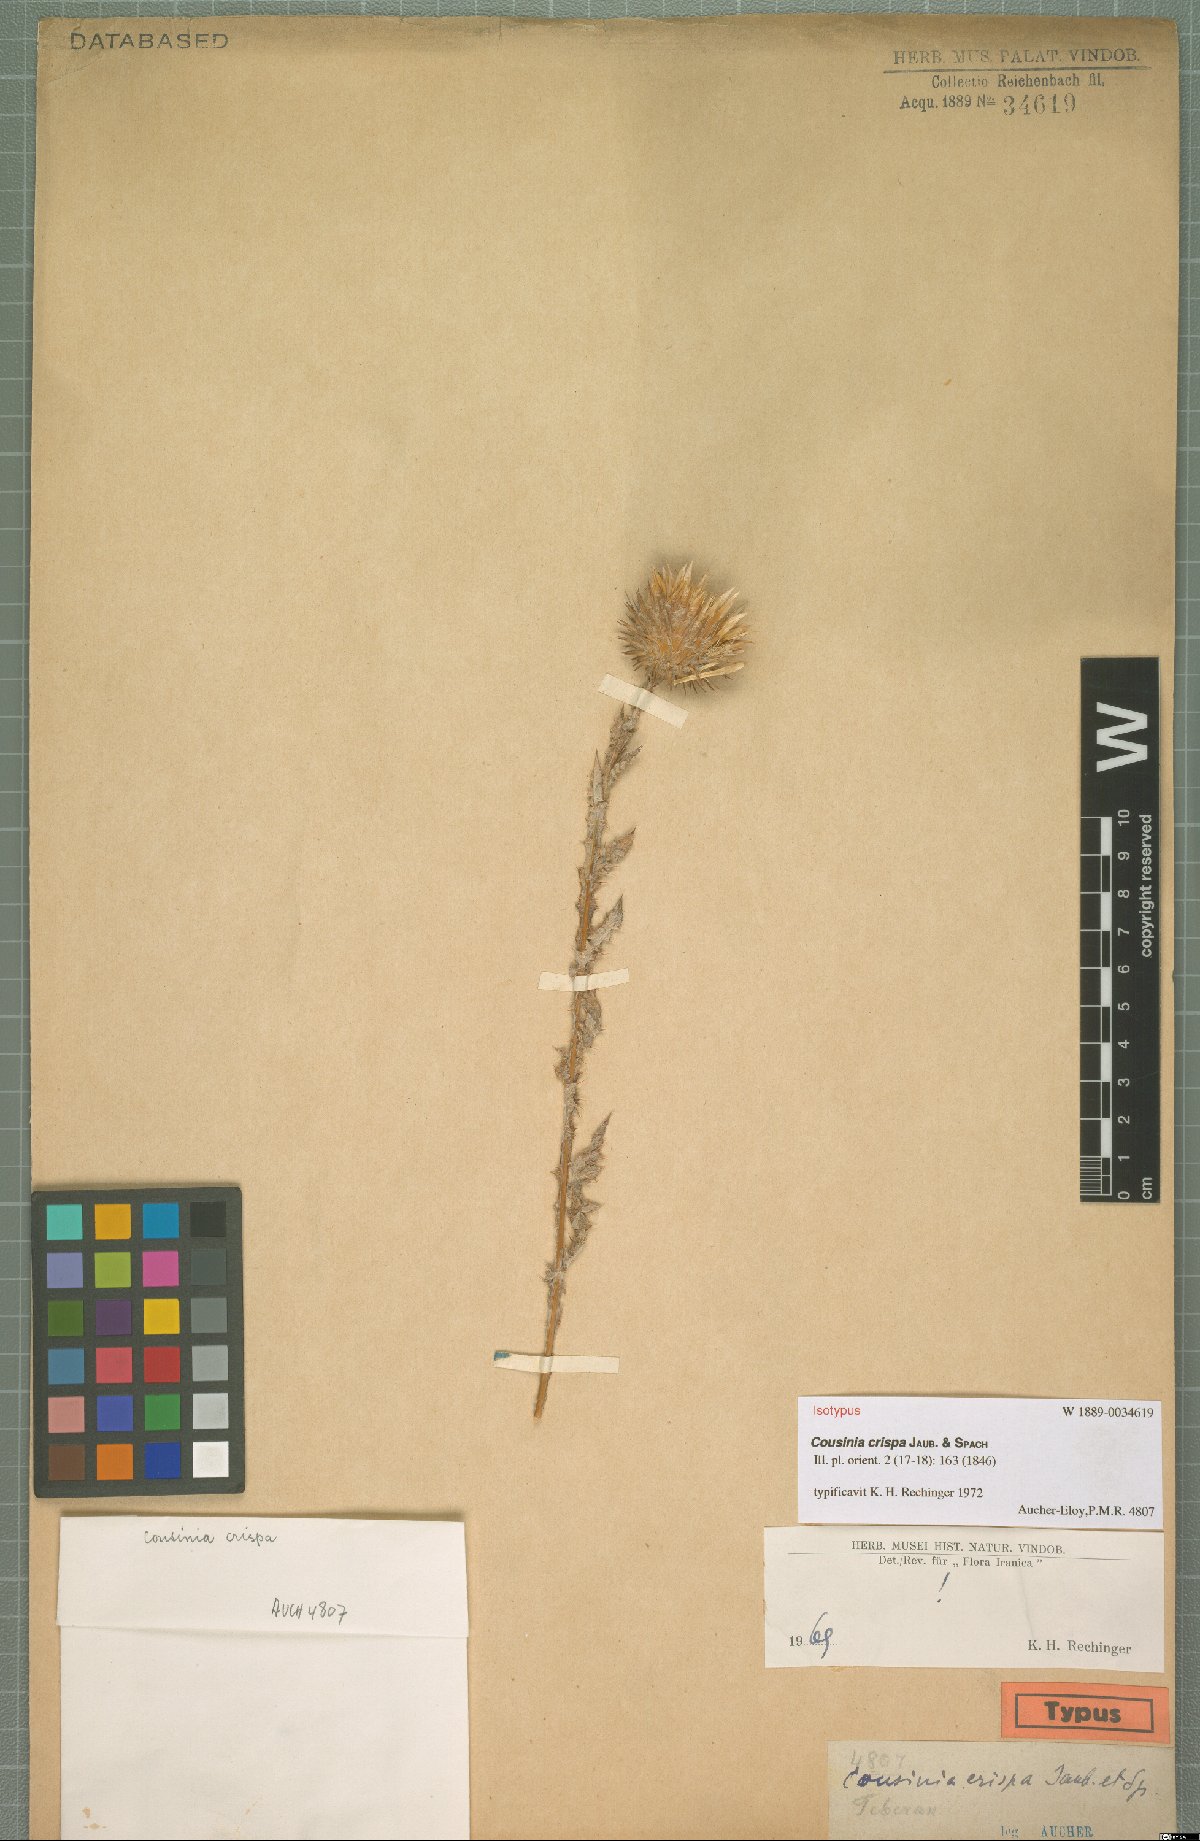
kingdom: Plantae
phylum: Tracheophyta
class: Magnoliopsida
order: Asterales
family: Asteraceae
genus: Cousinia
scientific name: Cousinia crispa
